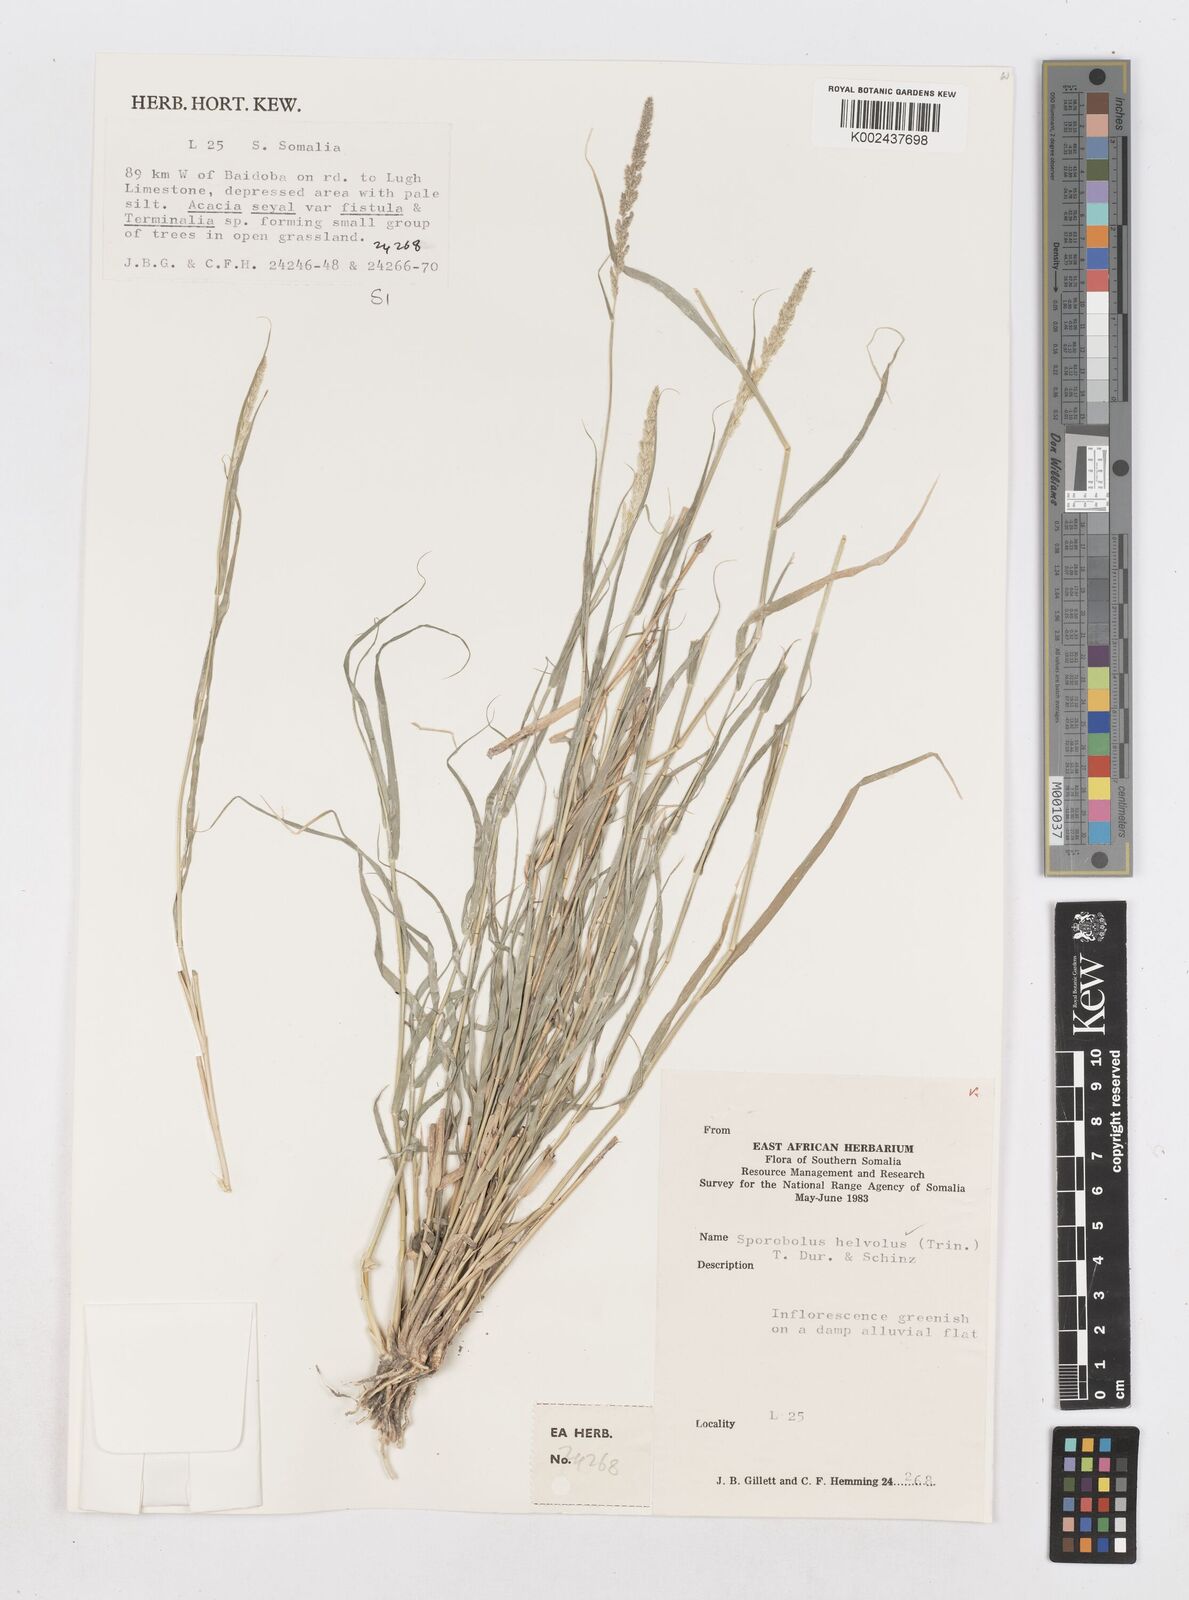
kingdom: Plantae
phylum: Tracheophyta
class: Liliopsida
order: Poales
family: Poaceae
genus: Sporobolus
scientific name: Sporobolus helvolus
